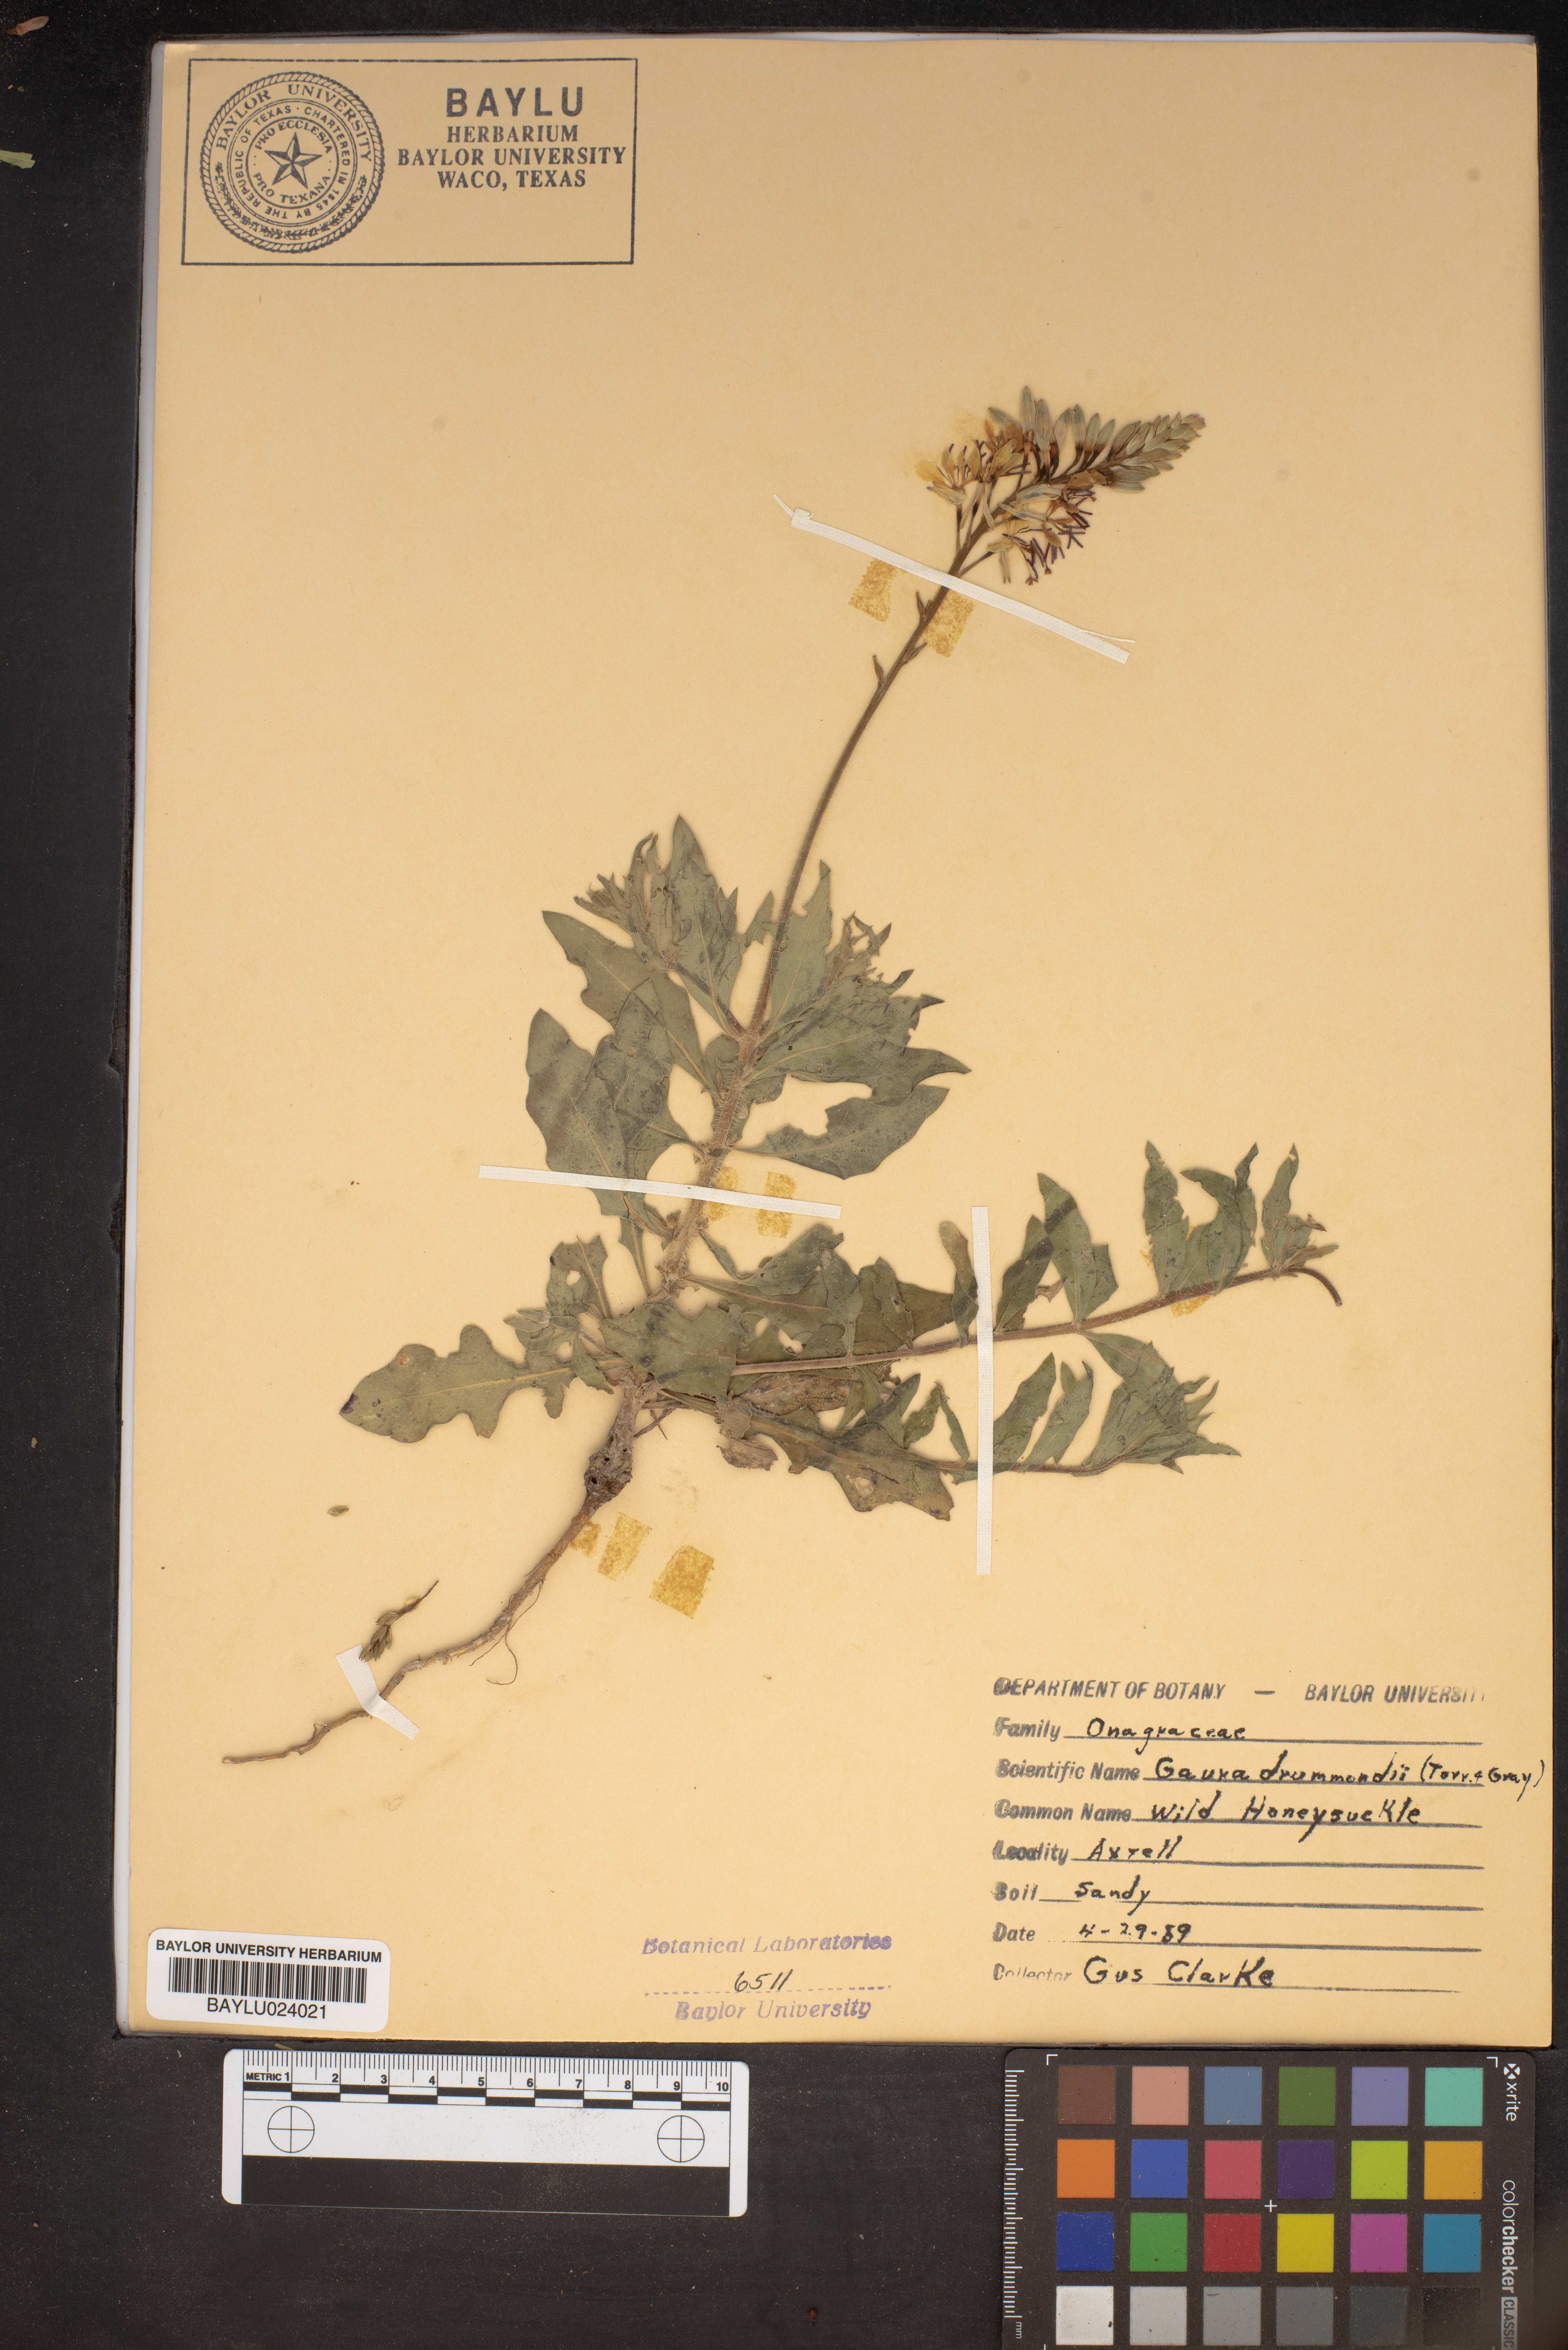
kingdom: Plantae
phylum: Tracheophyta
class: Magnoliopsida
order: Myrtales
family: Onagraceae
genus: Oenothera
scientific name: Oenothera hispida
